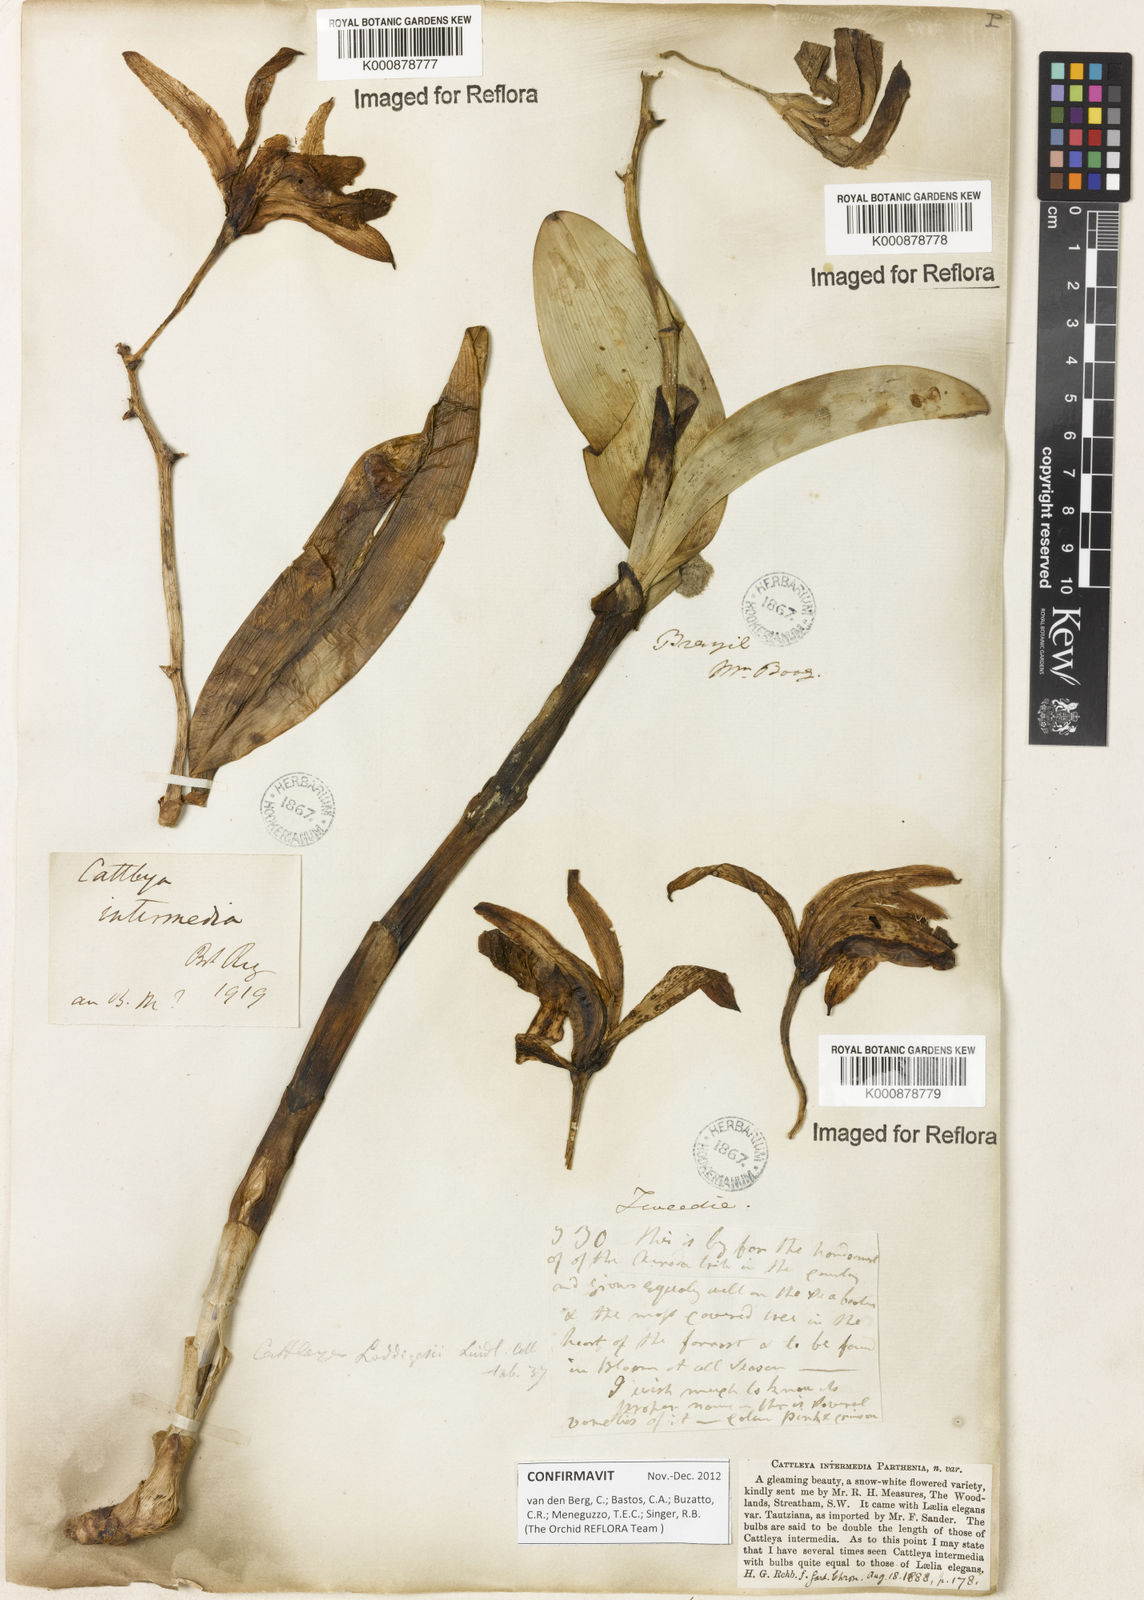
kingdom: Plantae
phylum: Tracheophyta
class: Liliopsida
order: Asparagales
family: Orchidaceae
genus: Cattleya
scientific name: Cattleya intermedia
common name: Intermediate cattleya
